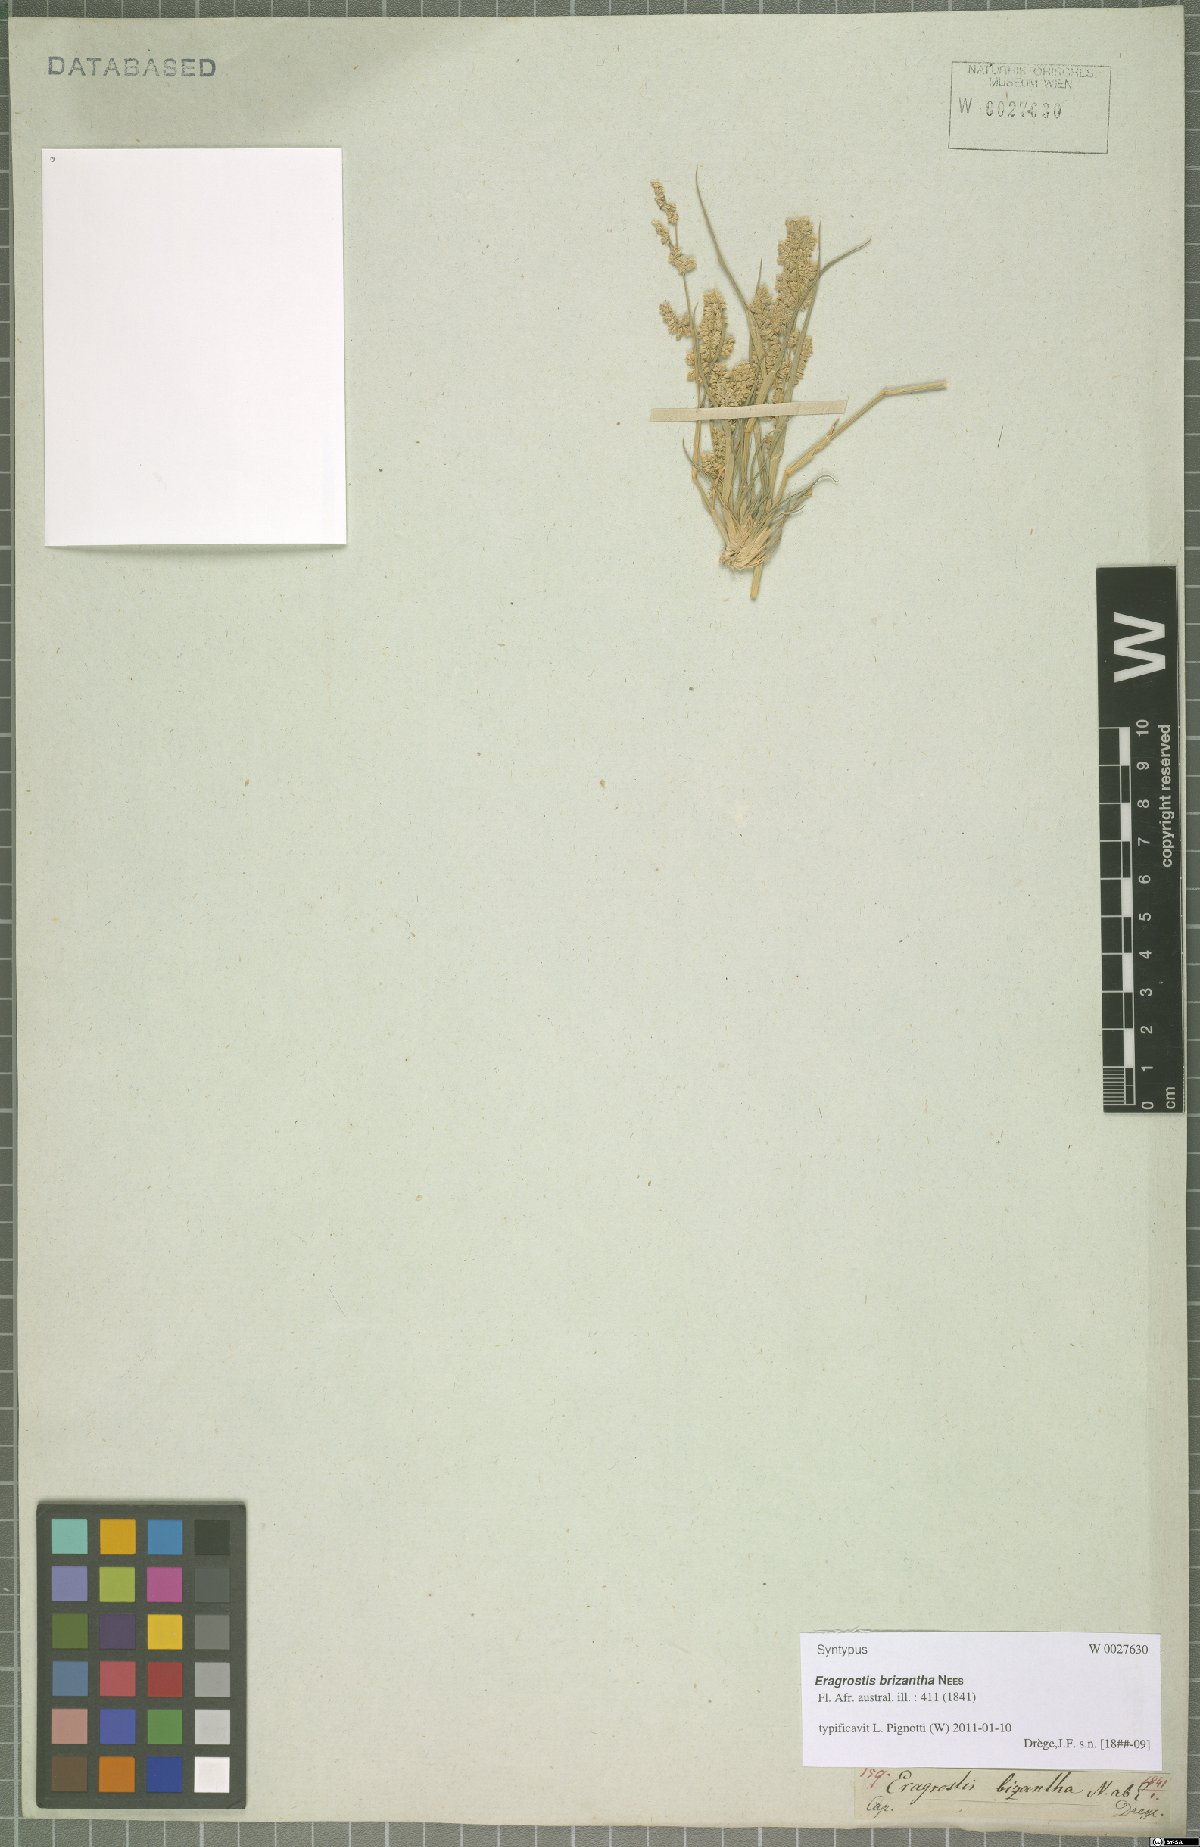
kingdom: Plantae
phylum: Tracheophyta
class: Liliopsida
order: Poales
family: Poaceae
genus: Eragrostis
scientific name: Eragrostis brizantha
